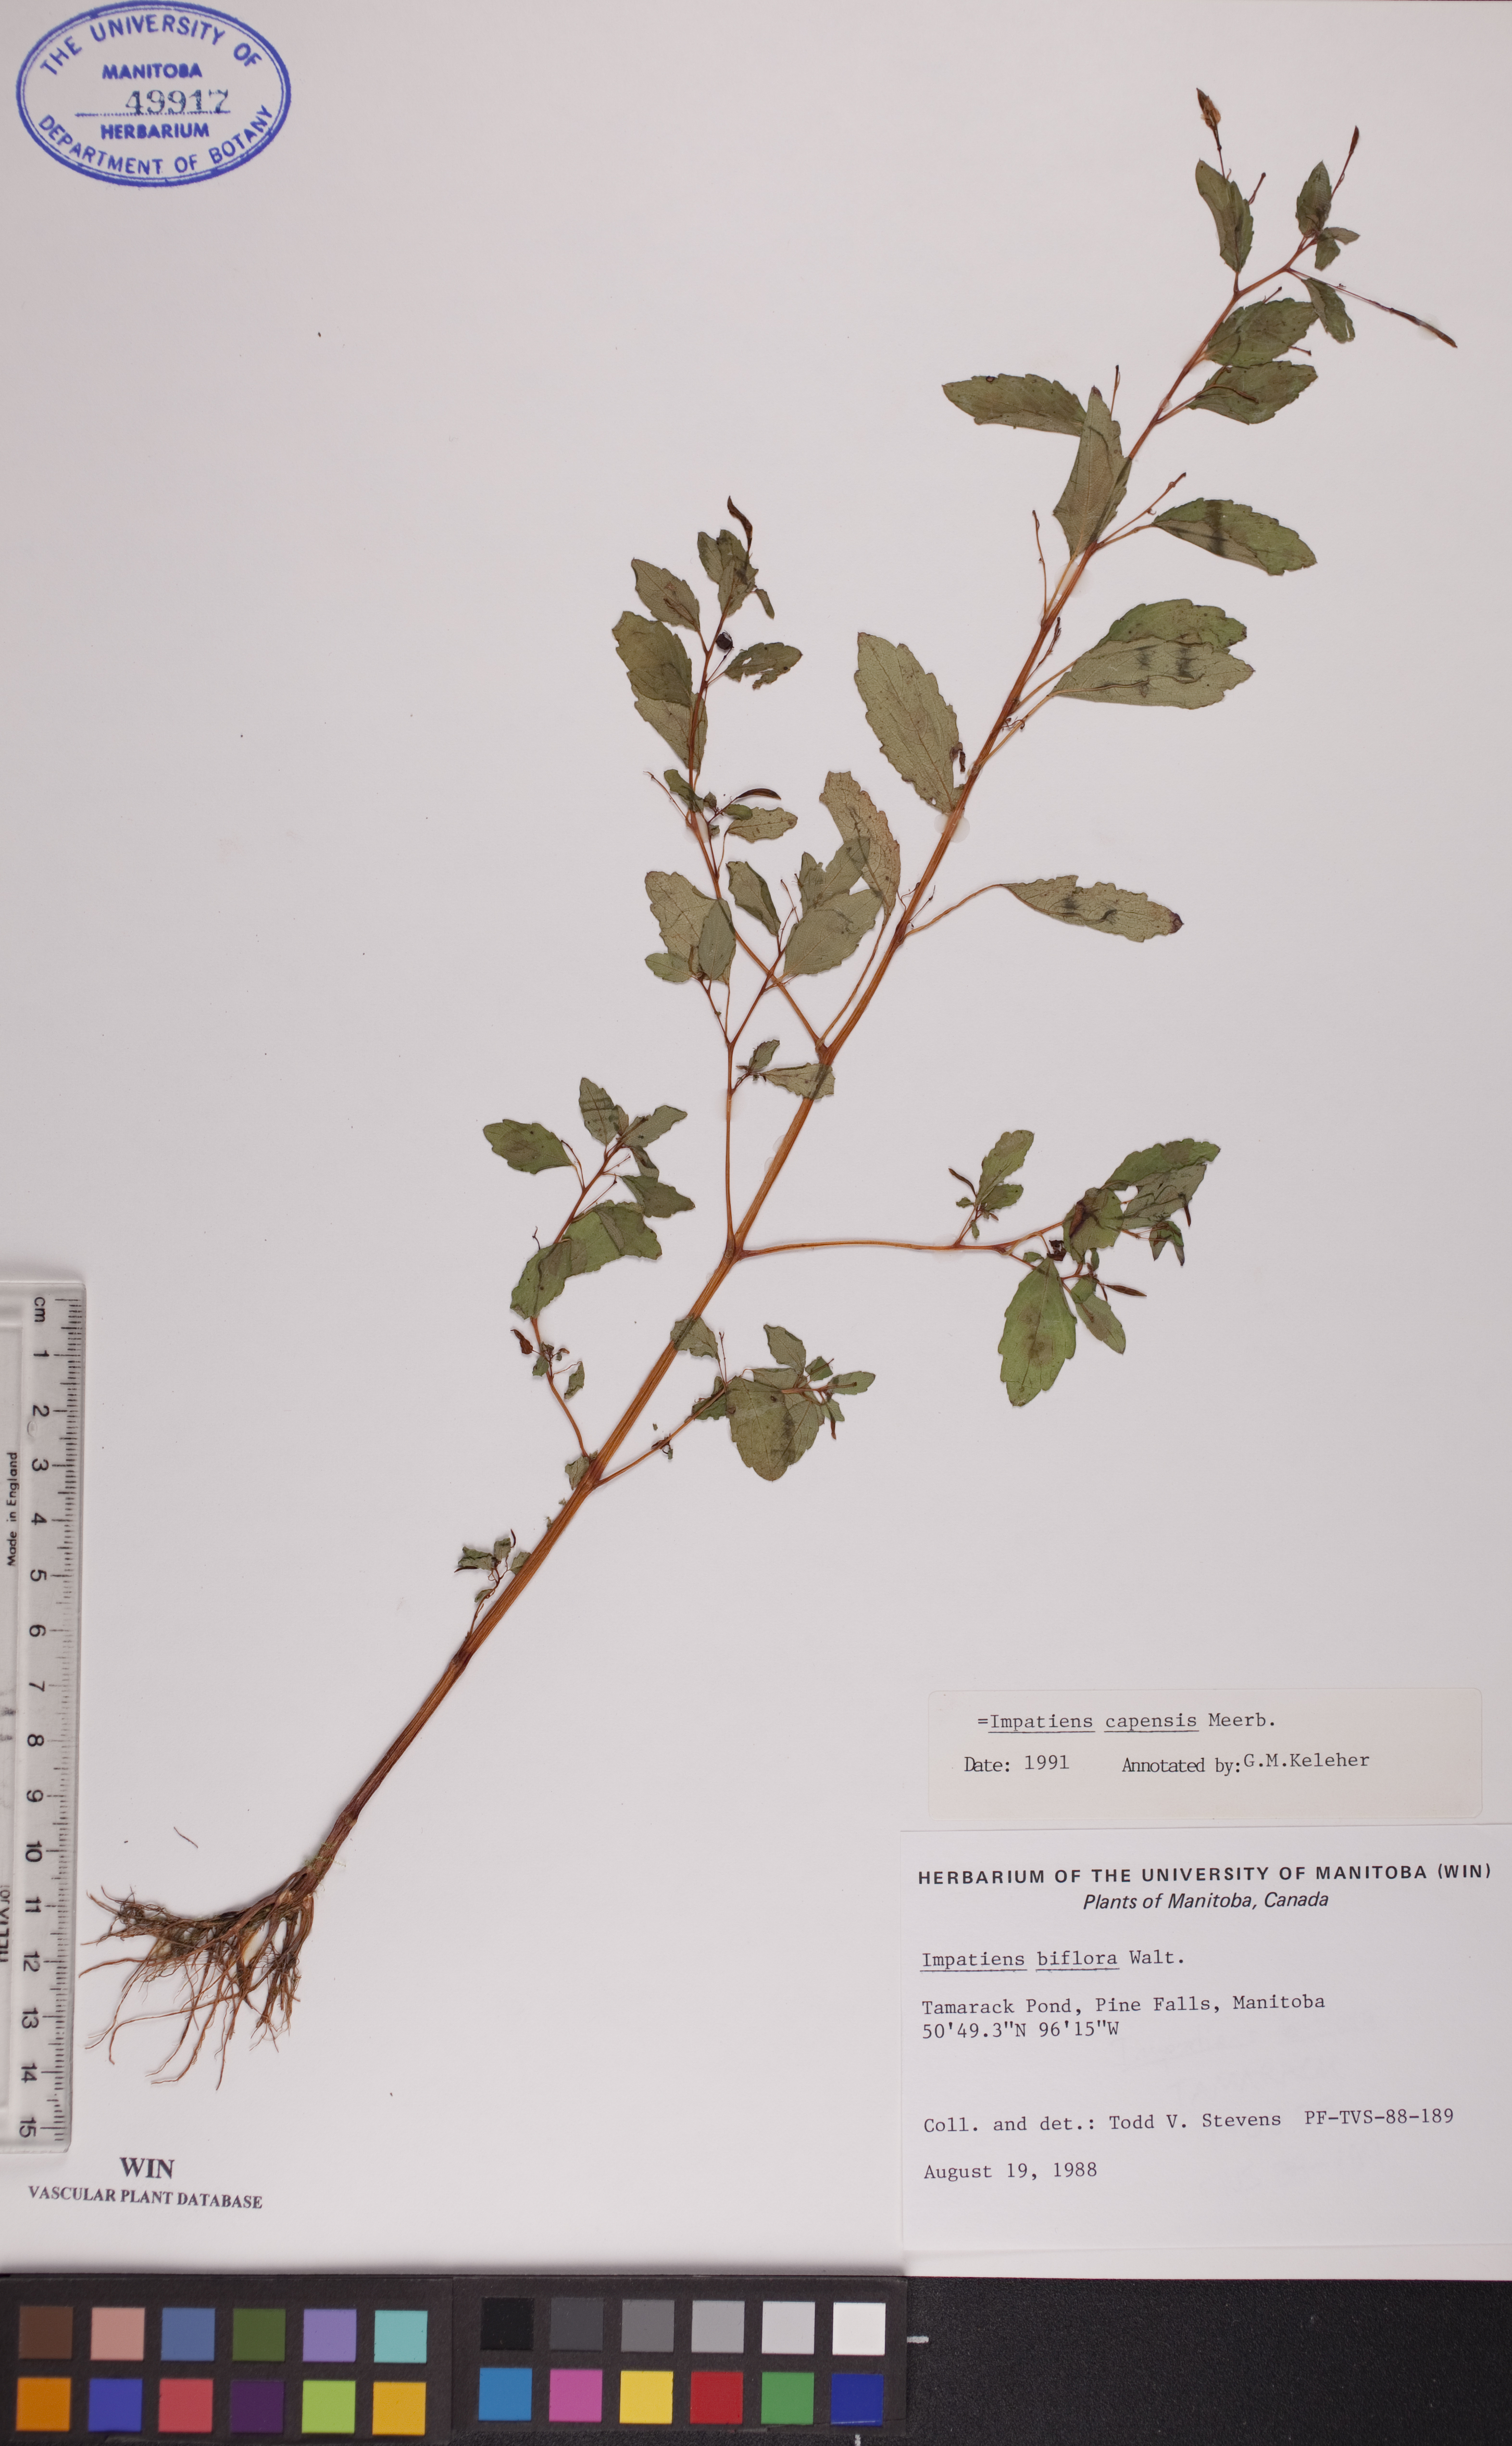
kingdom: Plantae
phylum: Tracheophyta
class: Magnoliopsida
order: Ericales
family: Balsaminaceae
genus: Impatiens
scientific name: Impatiens capensis
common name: Orange balsam
